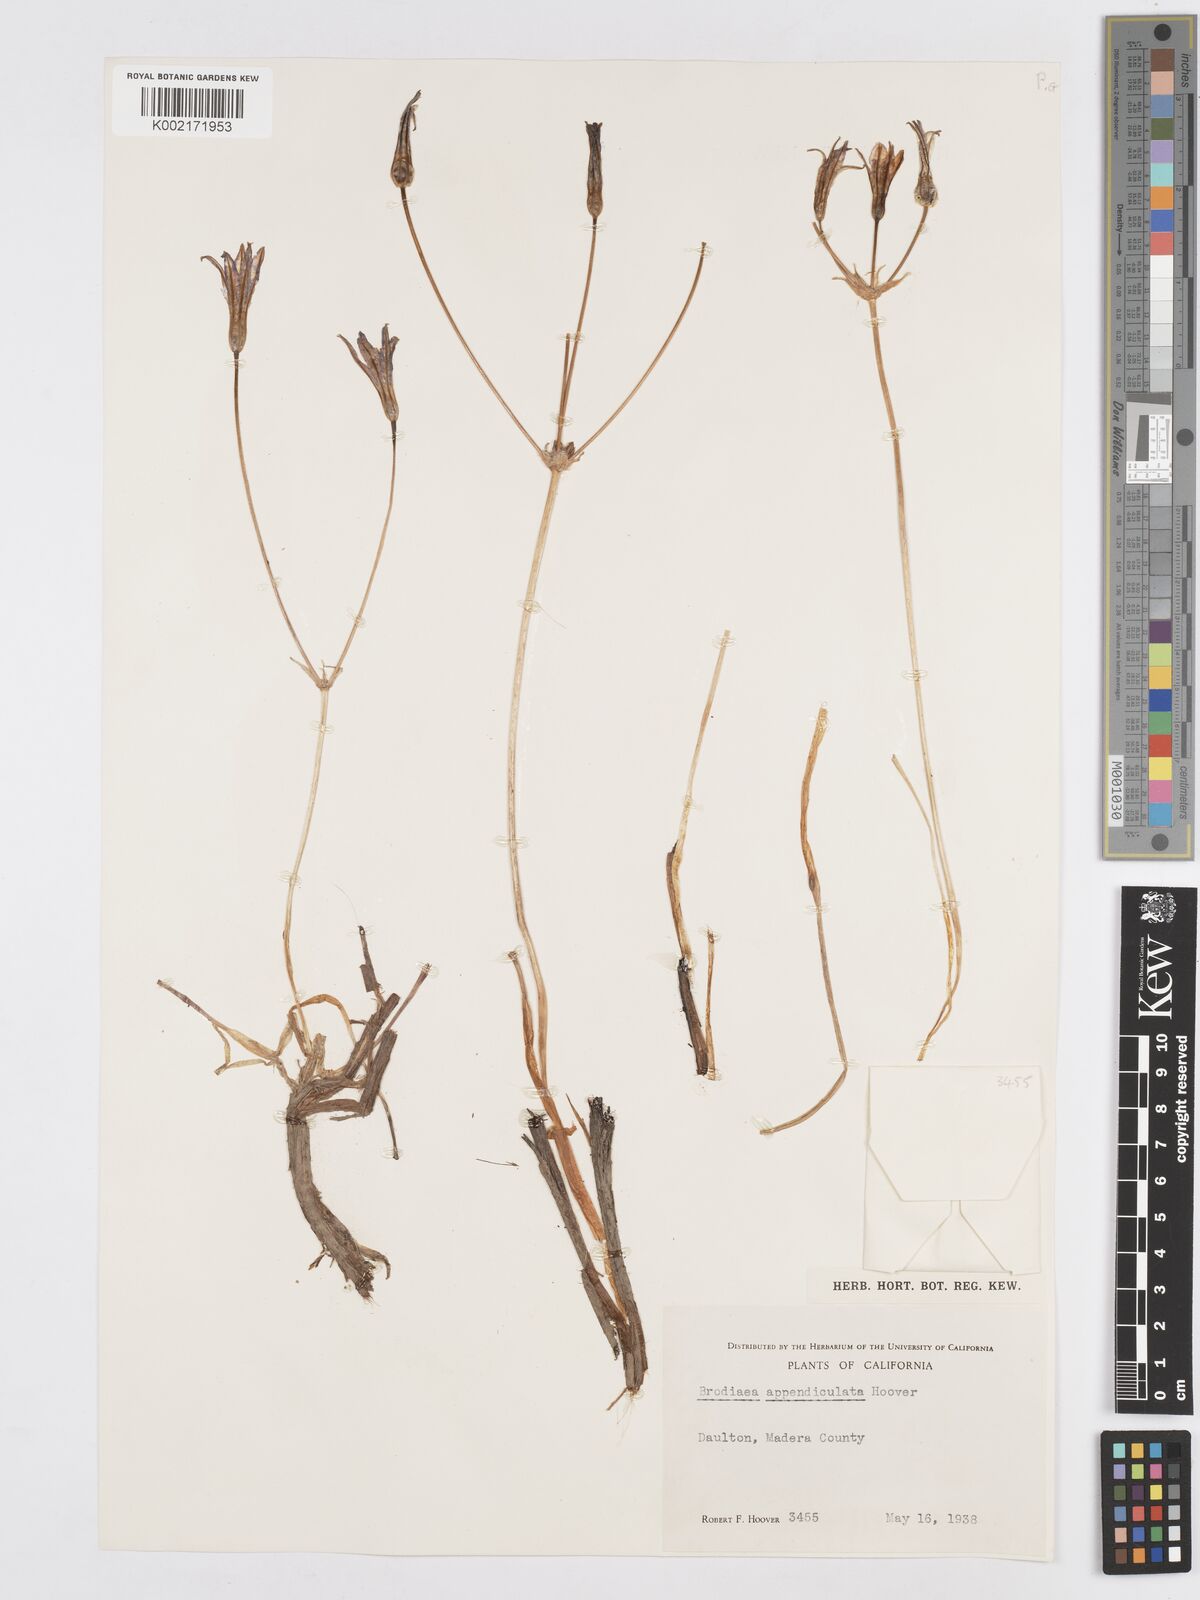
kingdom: Plantae
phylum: Tracheophyta
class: Liliopsida
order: Asparagales
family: Asparagaceae
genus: Brodiaea
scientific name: Brodiaea appendiculata
